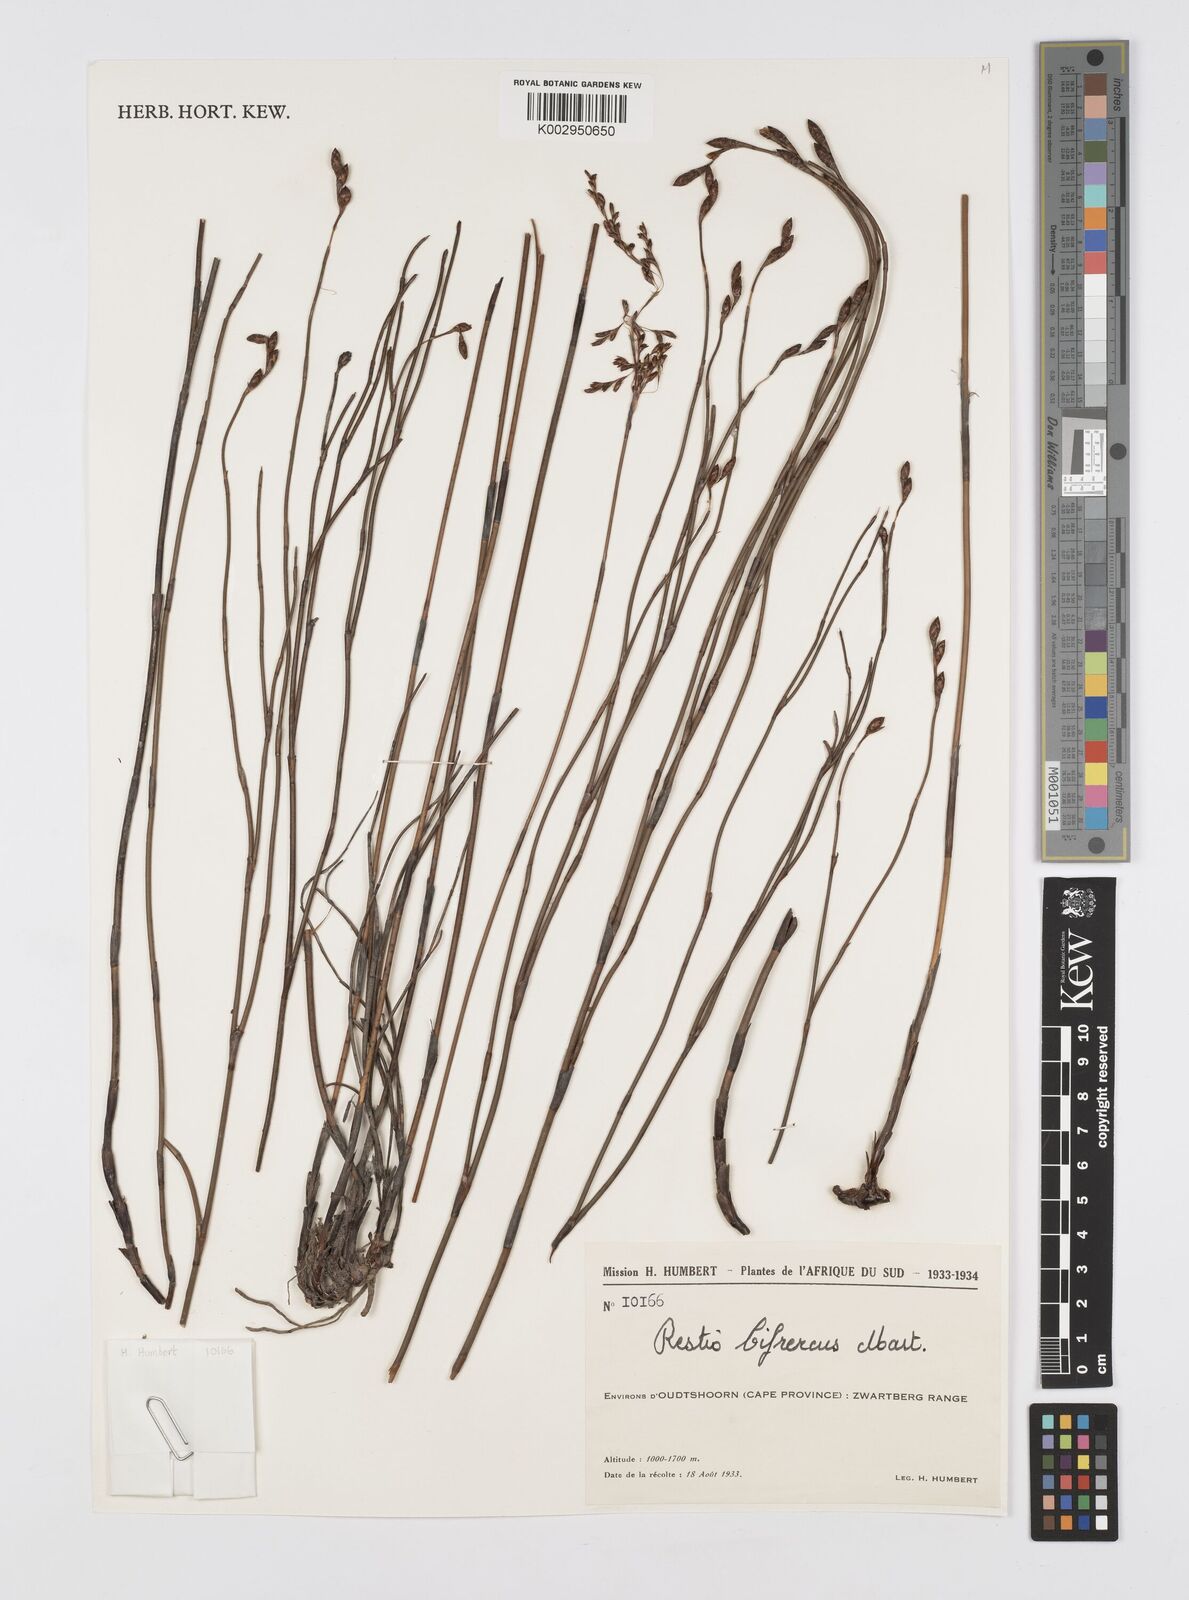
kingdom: Plantae
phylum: Tracheophyta
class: Liliopsida
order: Poales
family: Restionaceae
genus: Restio
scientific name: Restio bifurcus
